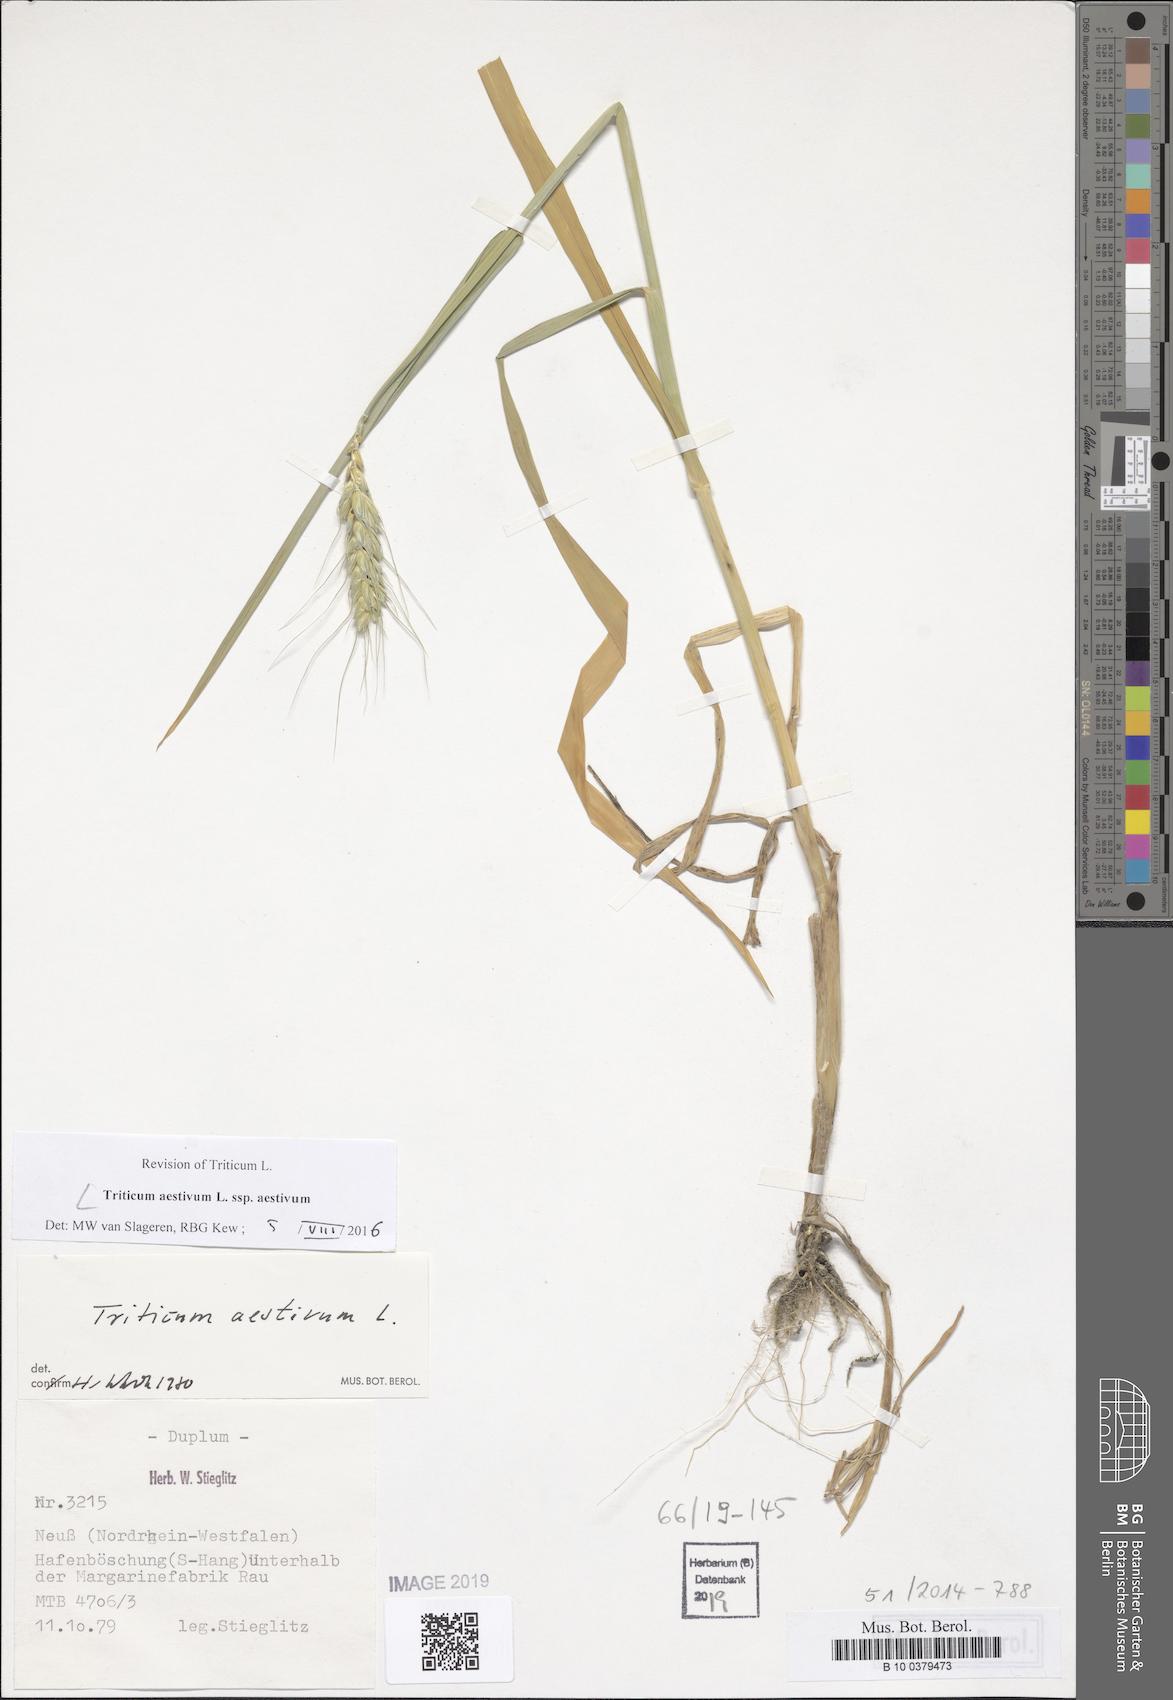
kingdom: Plantae
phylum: Tracheophyta
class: Liliopsida
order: Poales
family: Poaceae
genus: Triticum
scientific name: Triticum aestivum
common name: Common wheat
